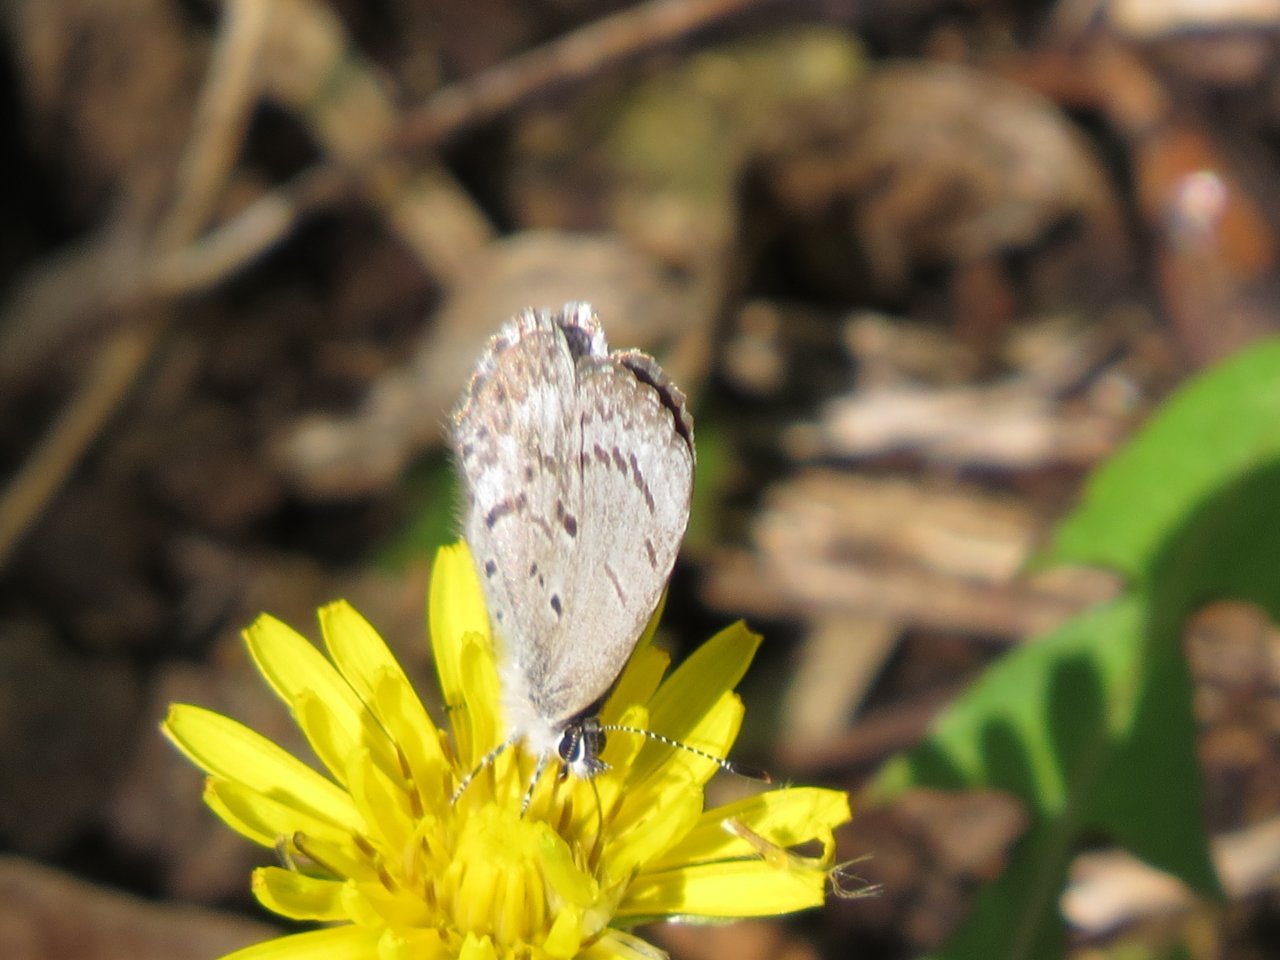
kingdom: Animalia
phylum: Arthropoda
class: Insecta
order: Lepidoptera
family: Lycaenidae
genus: Celastrina
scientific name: Celastrina lucia
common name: Northern Spring Azure
